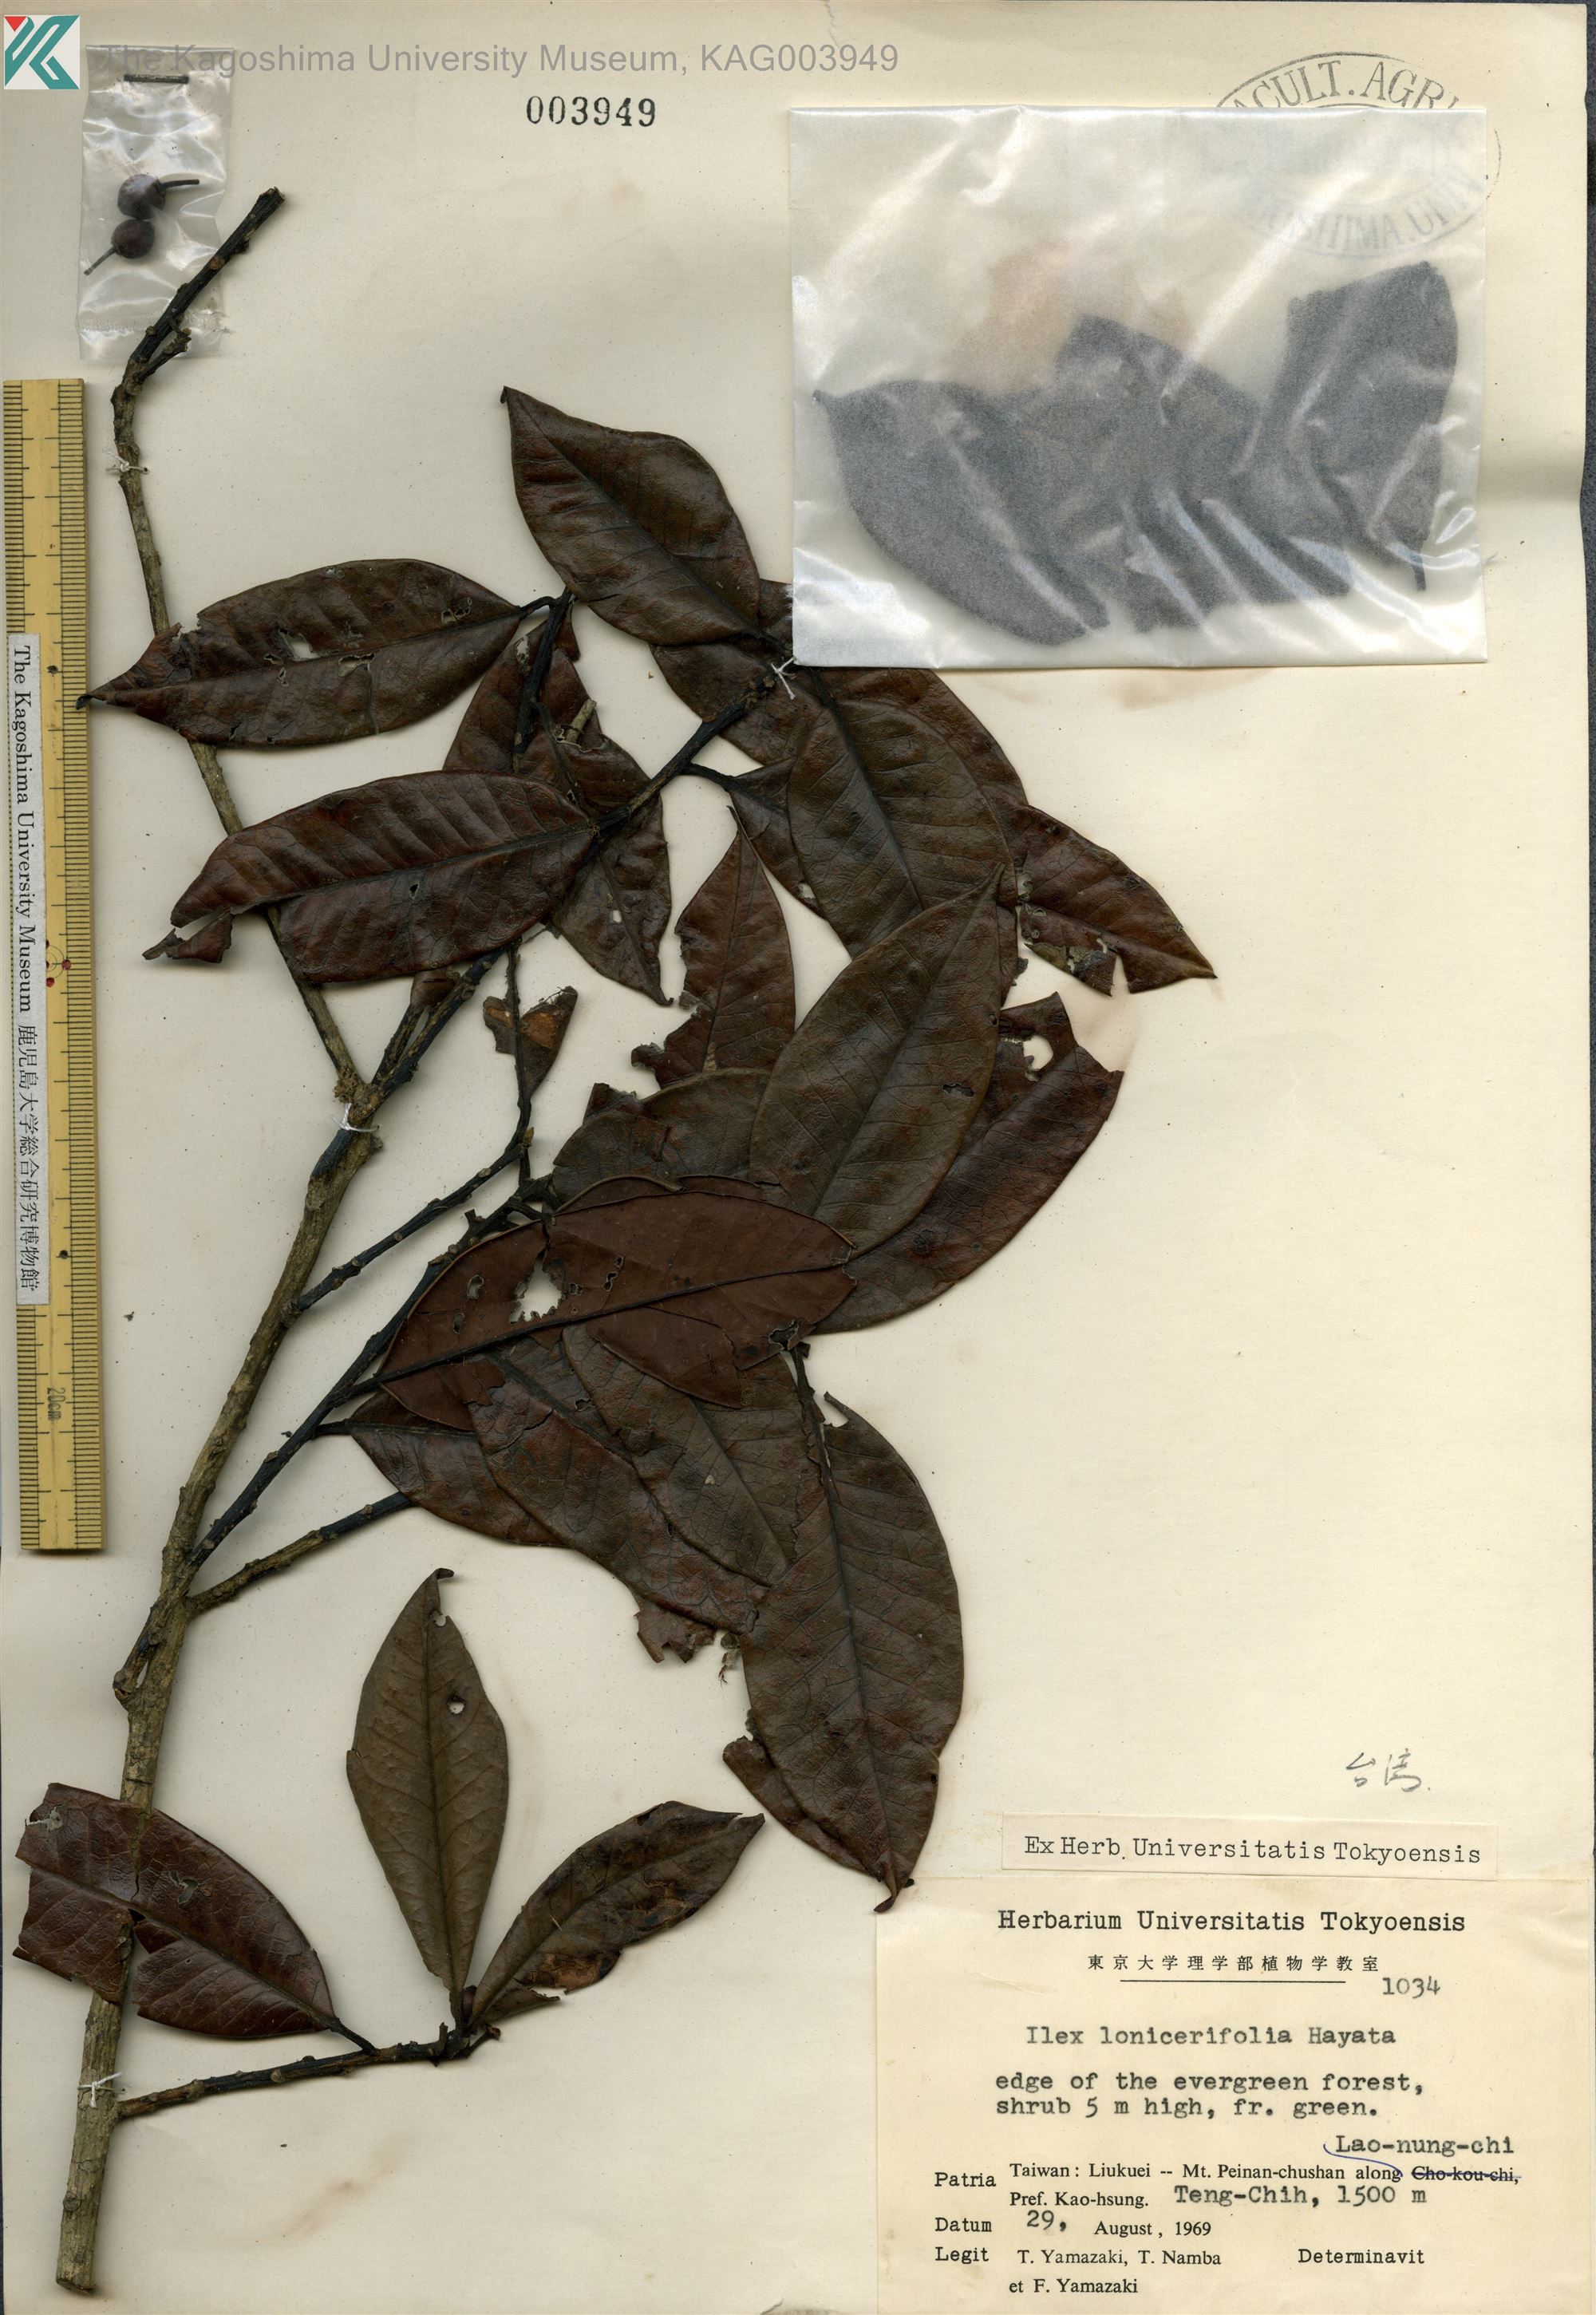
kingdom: Plantae
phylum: Tracheophyta
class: Magnoliopsida
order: Aquifoliales
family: Aquifoliaceae
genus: Ilex
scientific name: Ilex lonicerifolia
